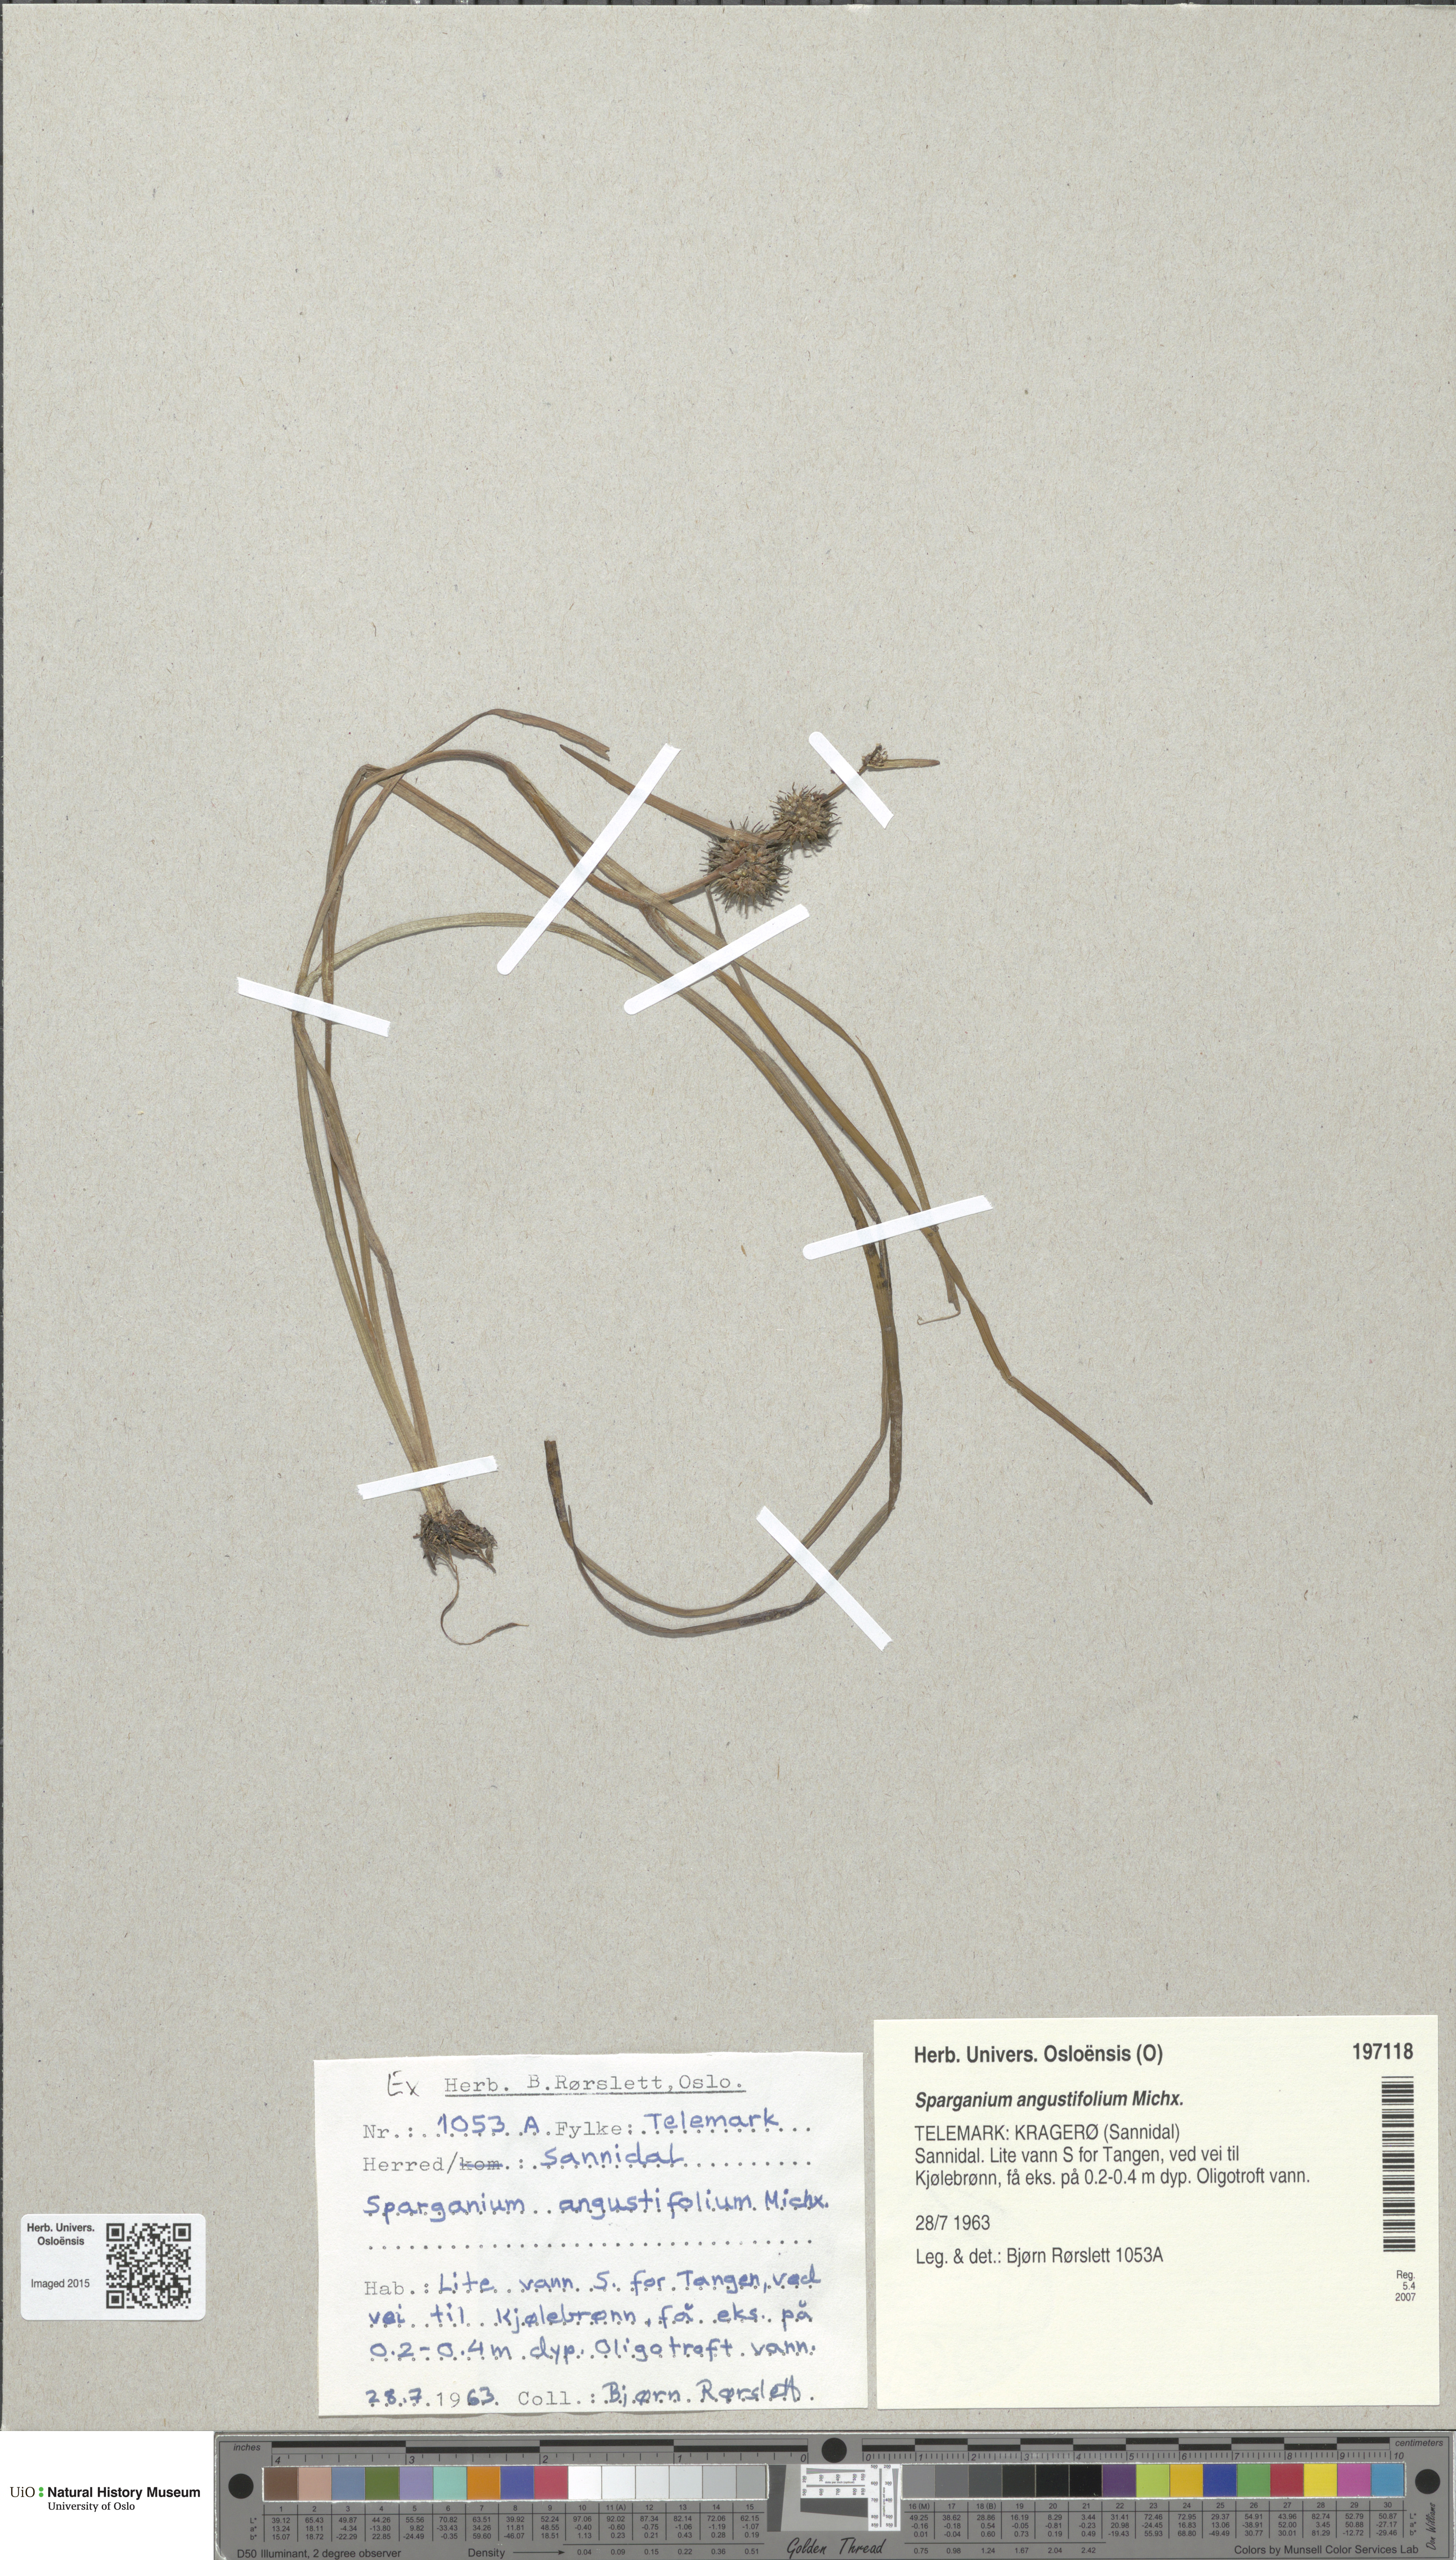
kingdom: Plantae
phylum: Tracheophyta
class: Liliopsida
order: Poales
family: Typhaceae
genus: Sparganium
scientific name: Sparganium angustifolium
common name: Floating bur-reed
